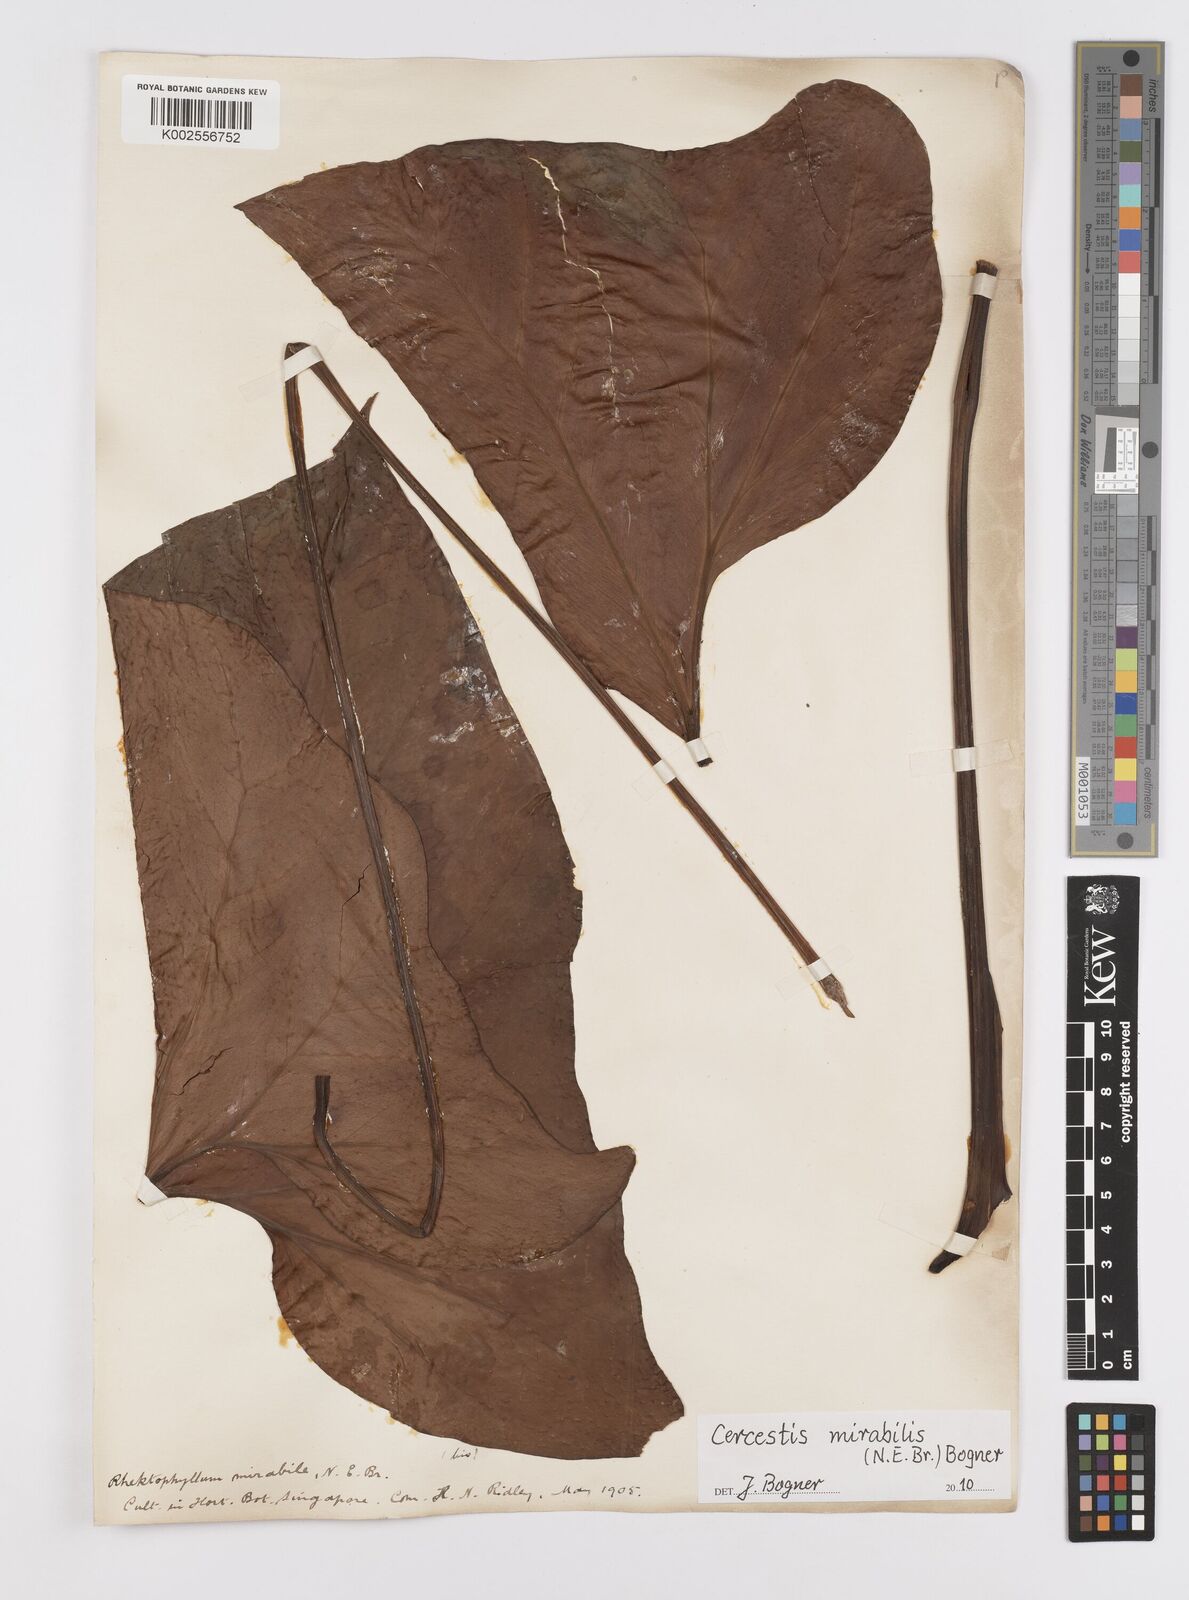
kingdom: Plantae
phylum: Tracheophyta
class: Liliopsida
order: Alismatales
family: Araceae
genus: Cercestis
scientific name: Cercestis mirabilis
